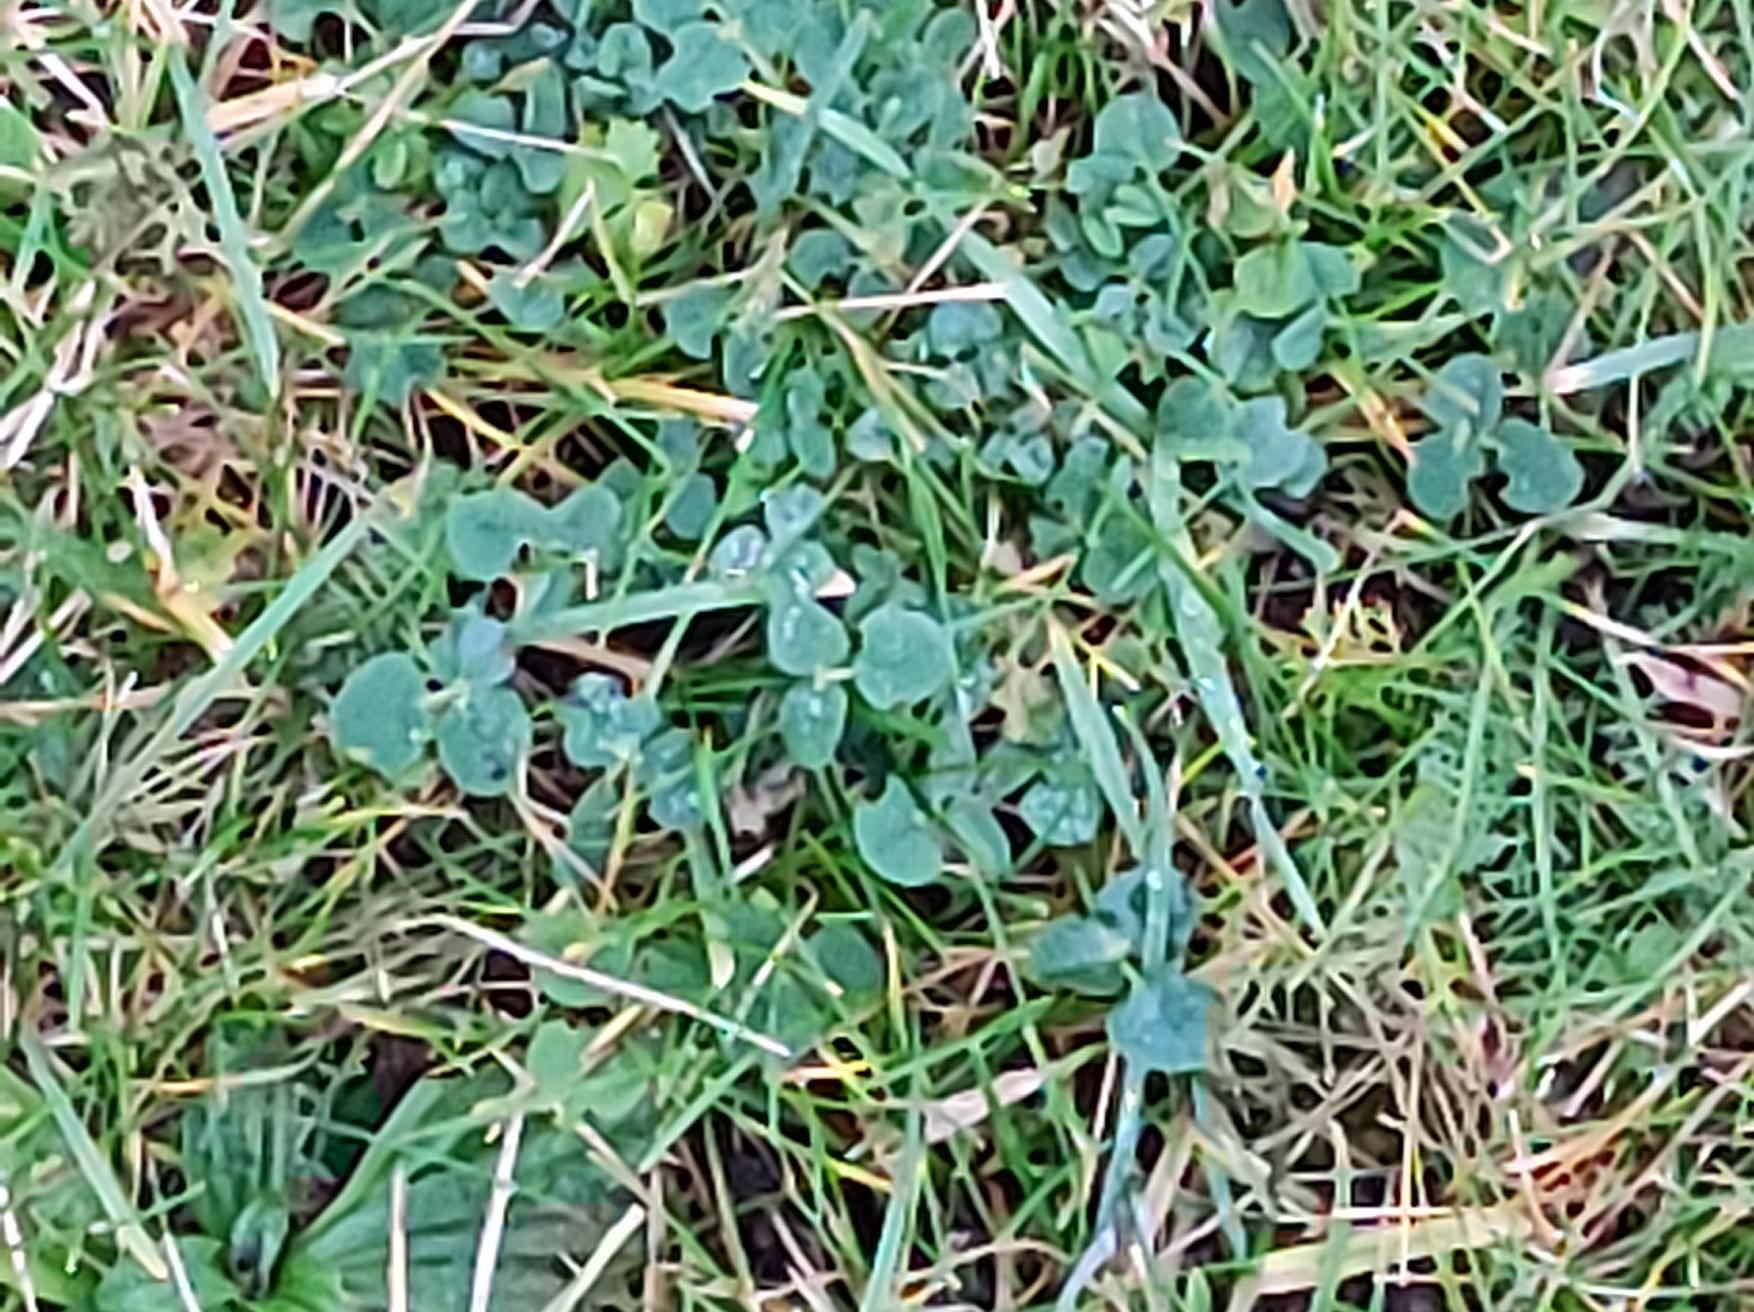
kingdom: Plantae
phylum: Tracheophyta
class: Magnoliopsida
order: Fabales
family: Fabaceae
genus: Trifolium
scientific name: Trifolium repens
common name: Hvid-kløver
